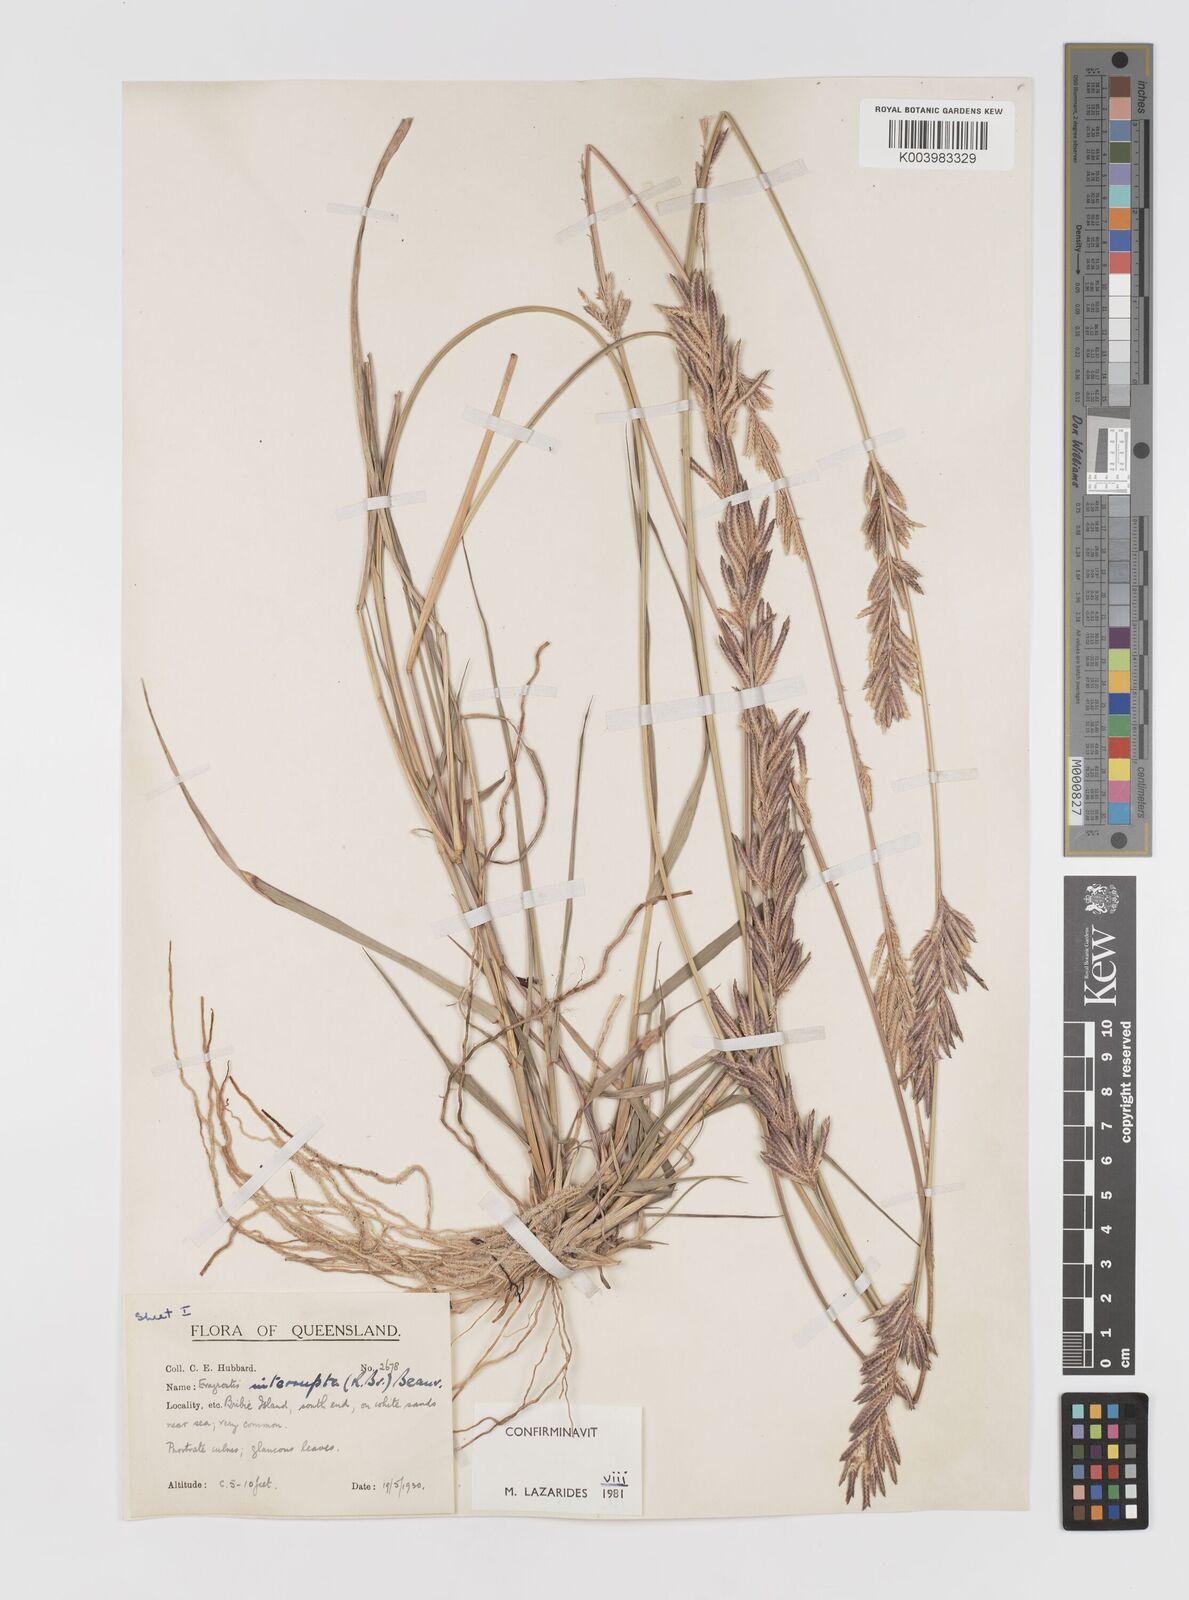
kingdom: Plantae
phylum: Tracheophyta
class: Liliopsida
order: Poales
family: Poaceae
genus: Eragrostis
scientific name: Eragrostis interrupta
